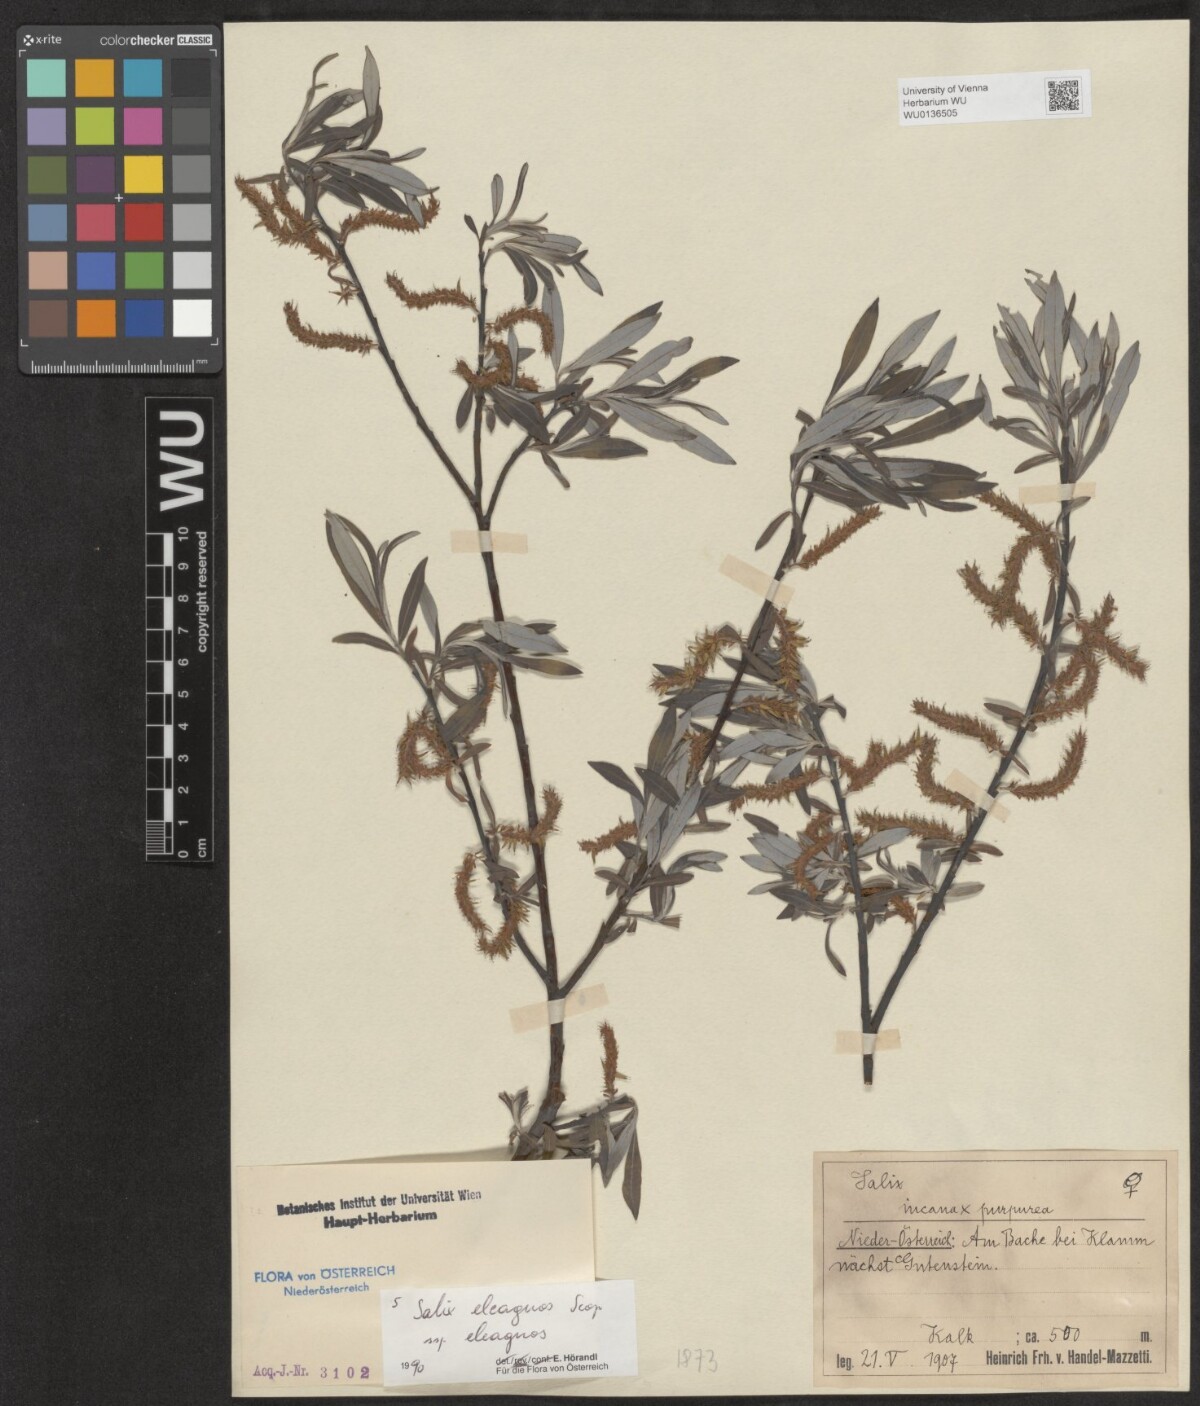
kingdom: Plantae
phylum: Tracheophyta
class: Magnoliopsida
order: Malpighiales
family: Salicaceae
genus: Salix
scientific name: Salix eleagnos
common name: Elaeagnus willow
